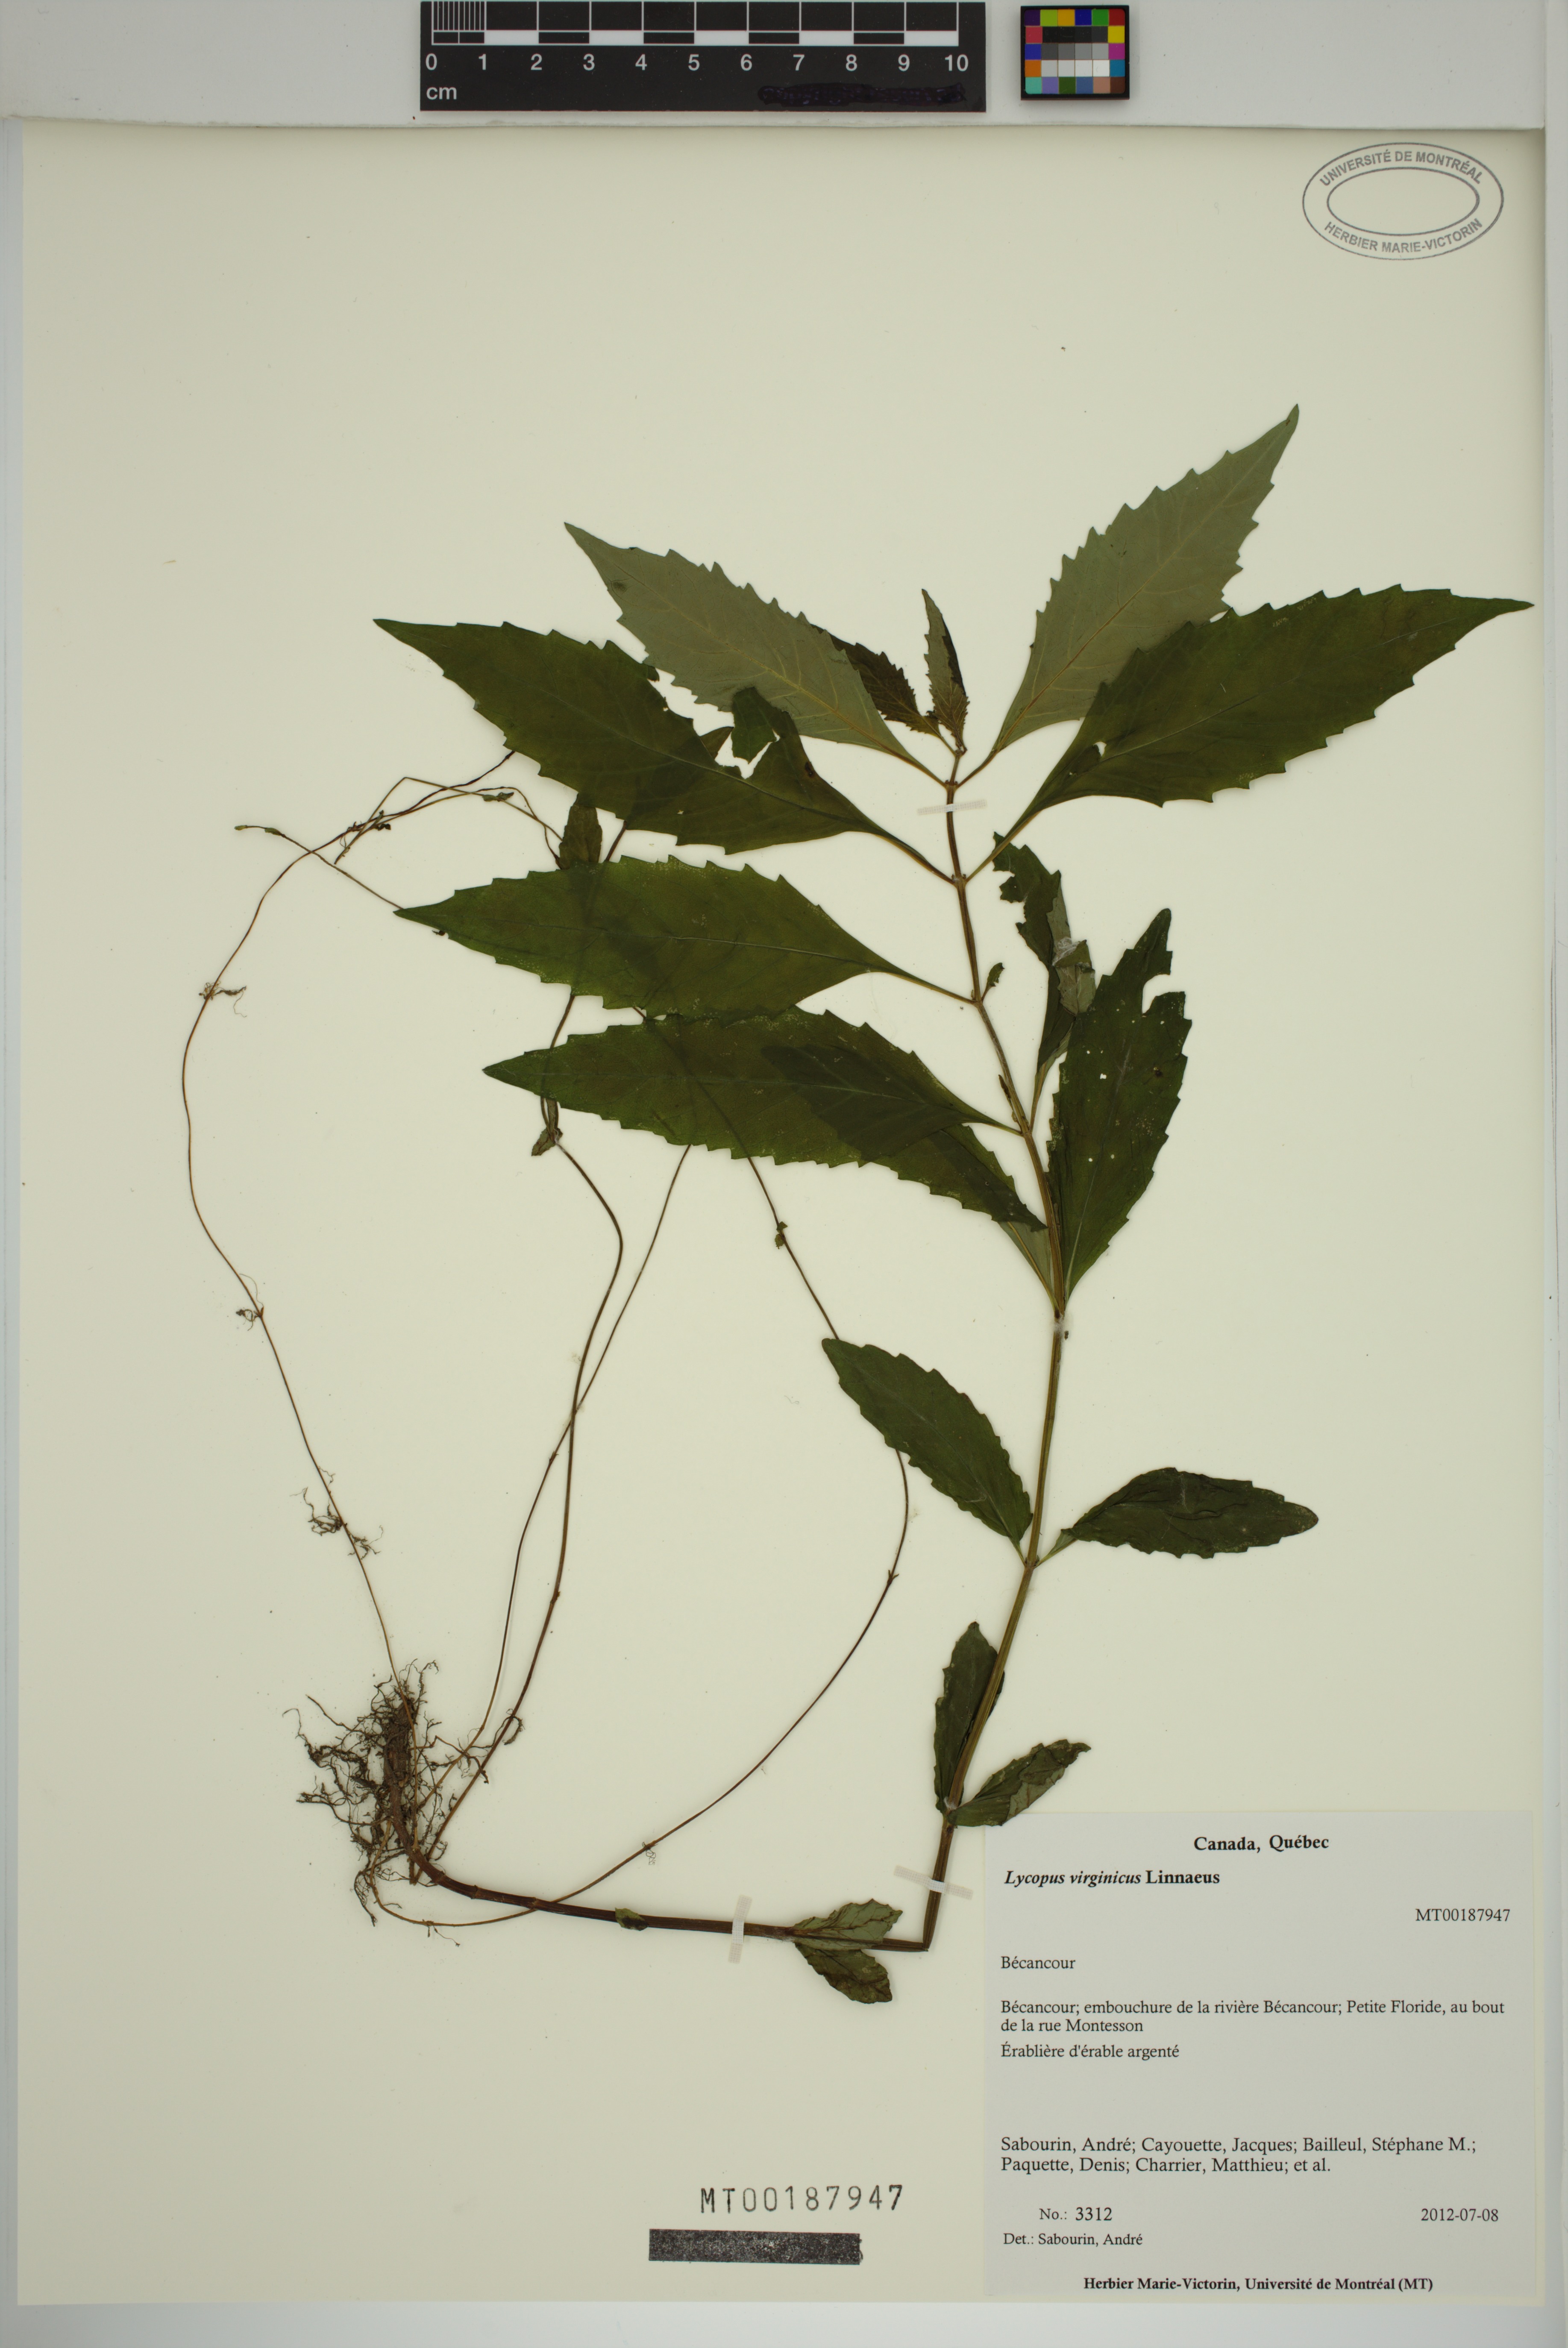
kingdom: Plantae
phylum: Tracheophyta
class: Magnoliopsida
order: Lamiales
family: Lamiaceae
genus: Lycopus
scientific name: Lycopus virginicus
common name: Bugleweed
